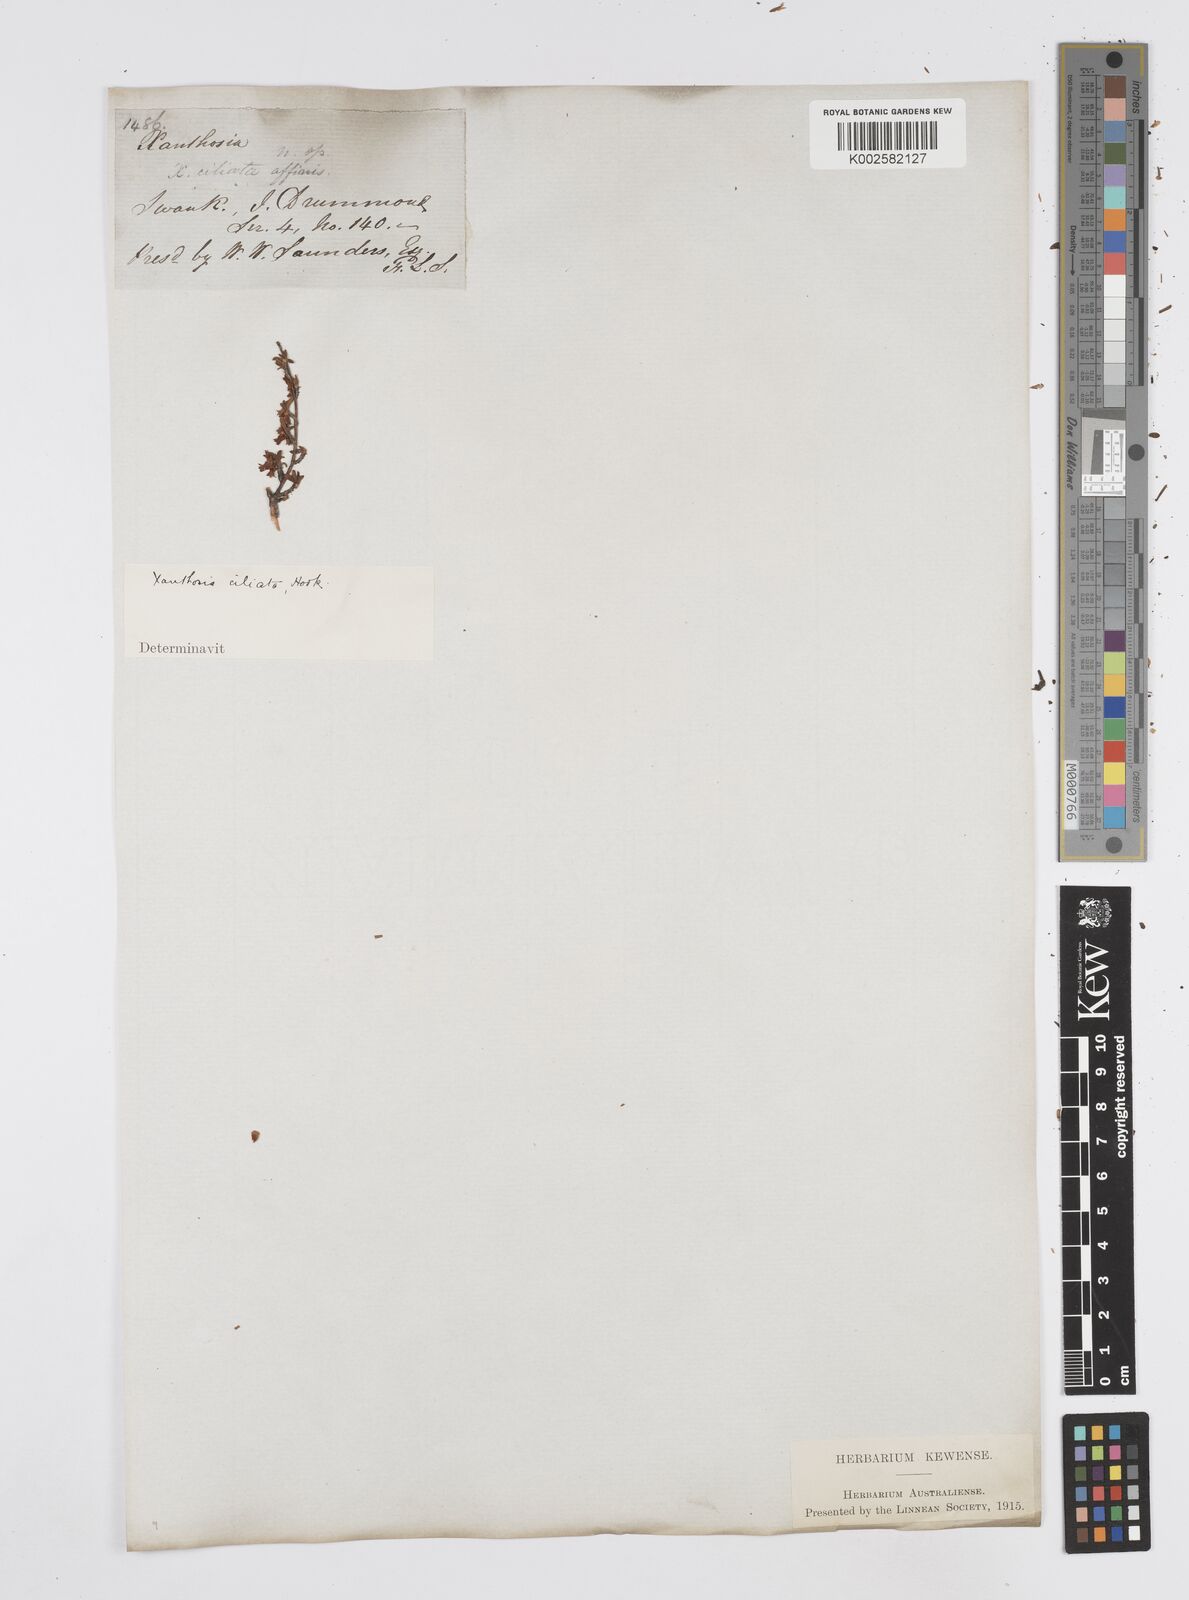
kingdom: Plantae
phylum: Tracheophyta
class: Magnoliopsida
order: Apiales
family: Apiaceae
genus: Xanthosia
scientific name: Xanthosia ciliata
